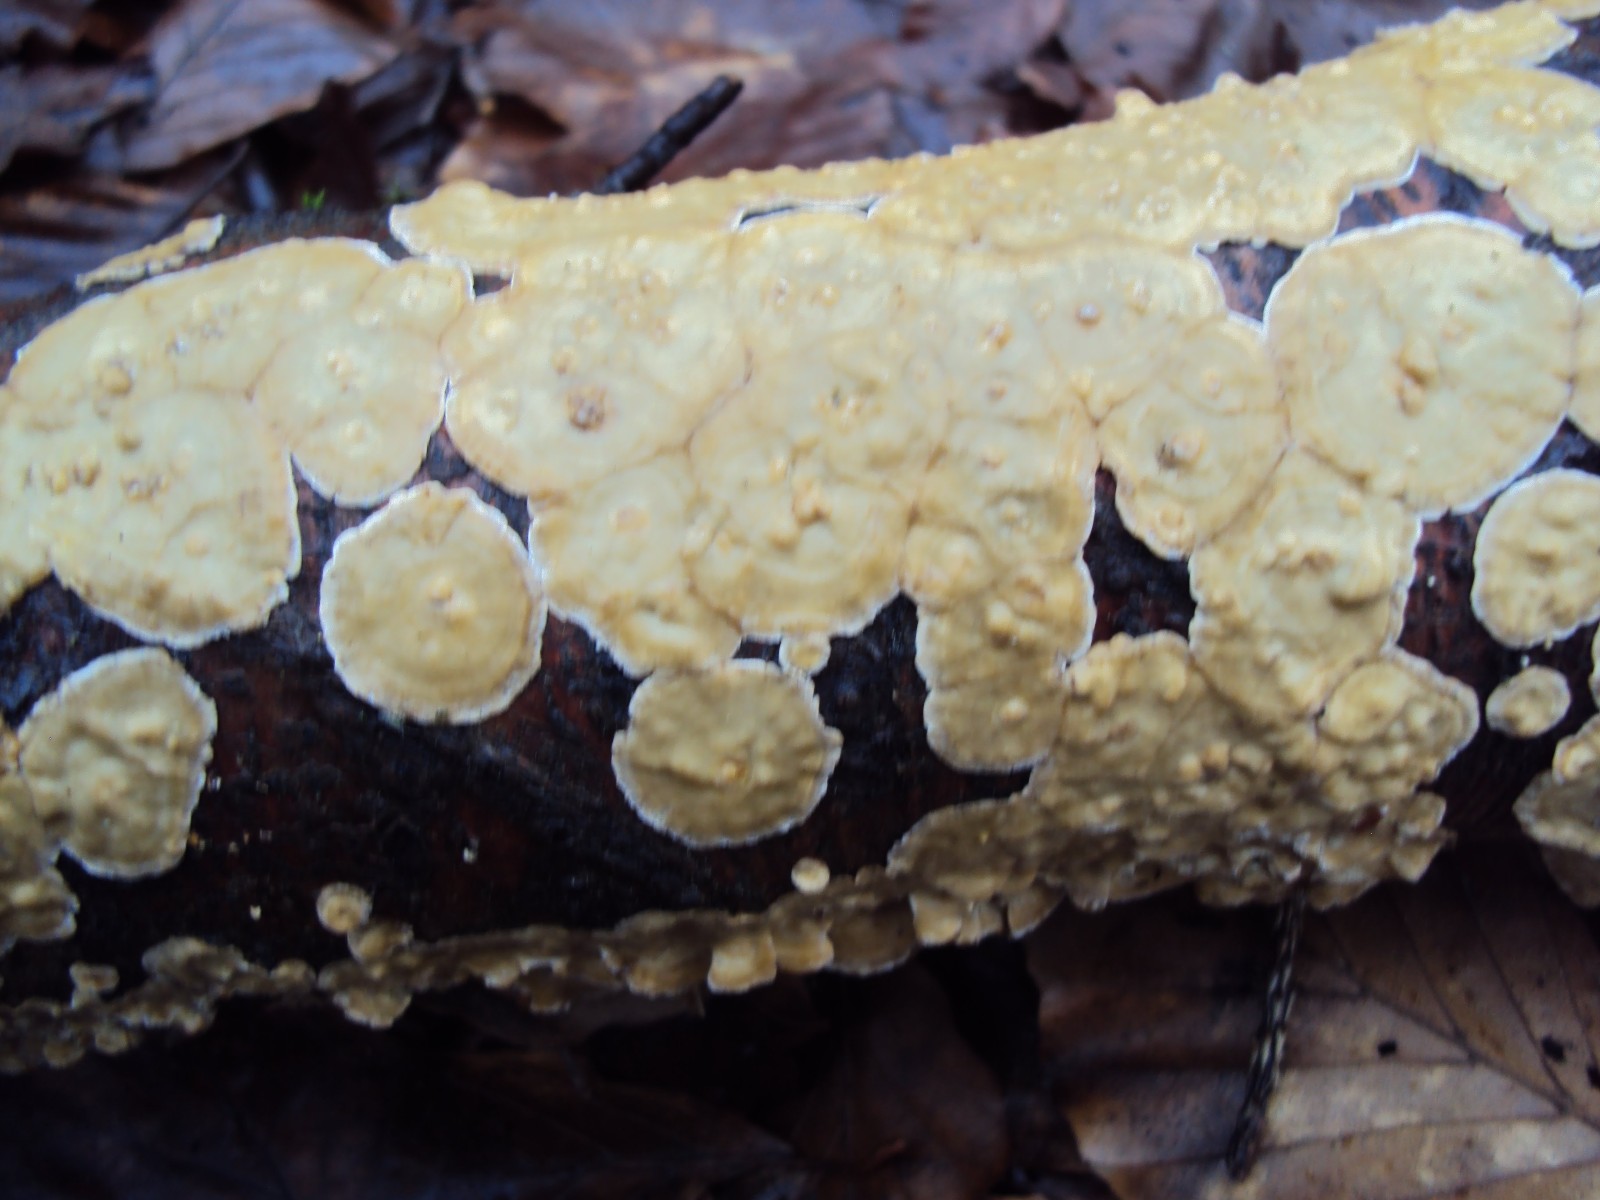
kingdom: Fungi
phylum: Basidiomycota
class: Agaricomycetes
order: Russulales
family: Stereaceae
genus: Stereum
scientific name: Stereum hirsutum
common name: håret lædersvamp
